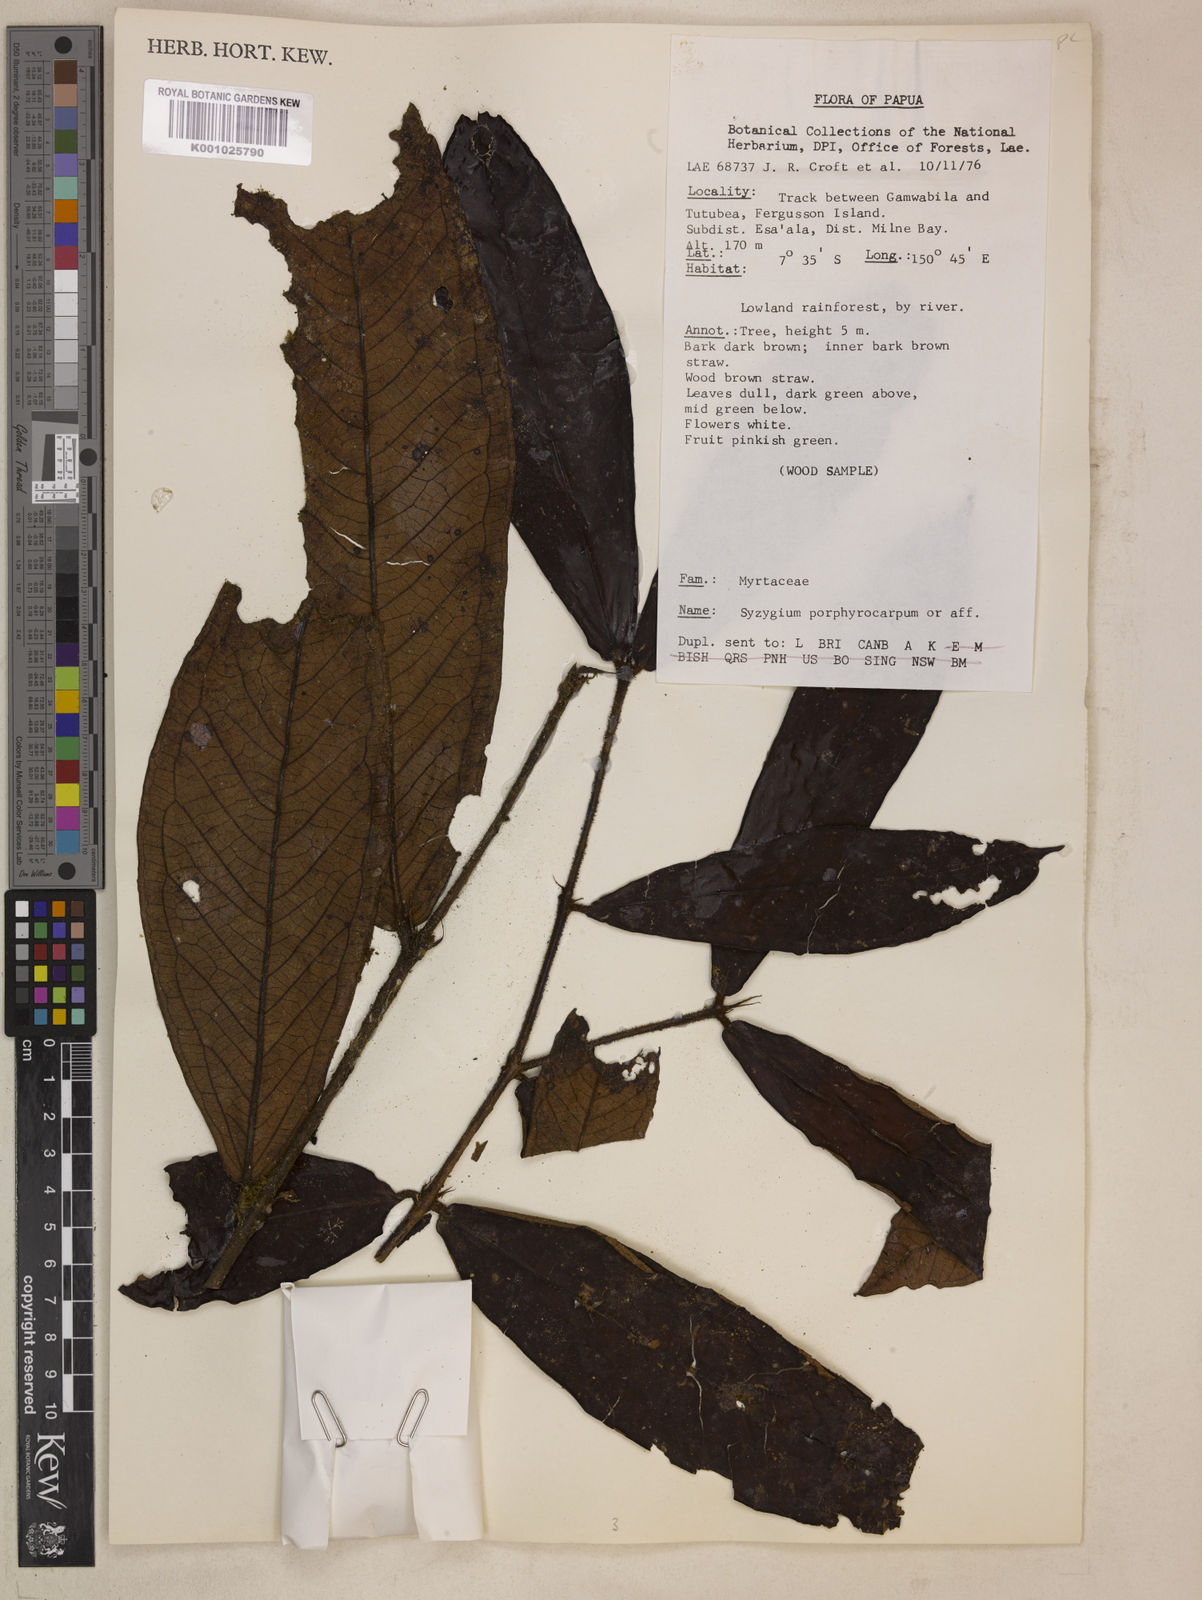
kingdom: Plantae
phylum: Tracheophyta
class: Magnoliopsida
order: Myrtales
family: Myrtaceae
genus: Syzygium
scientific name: Syzygium porphyrocarpum
